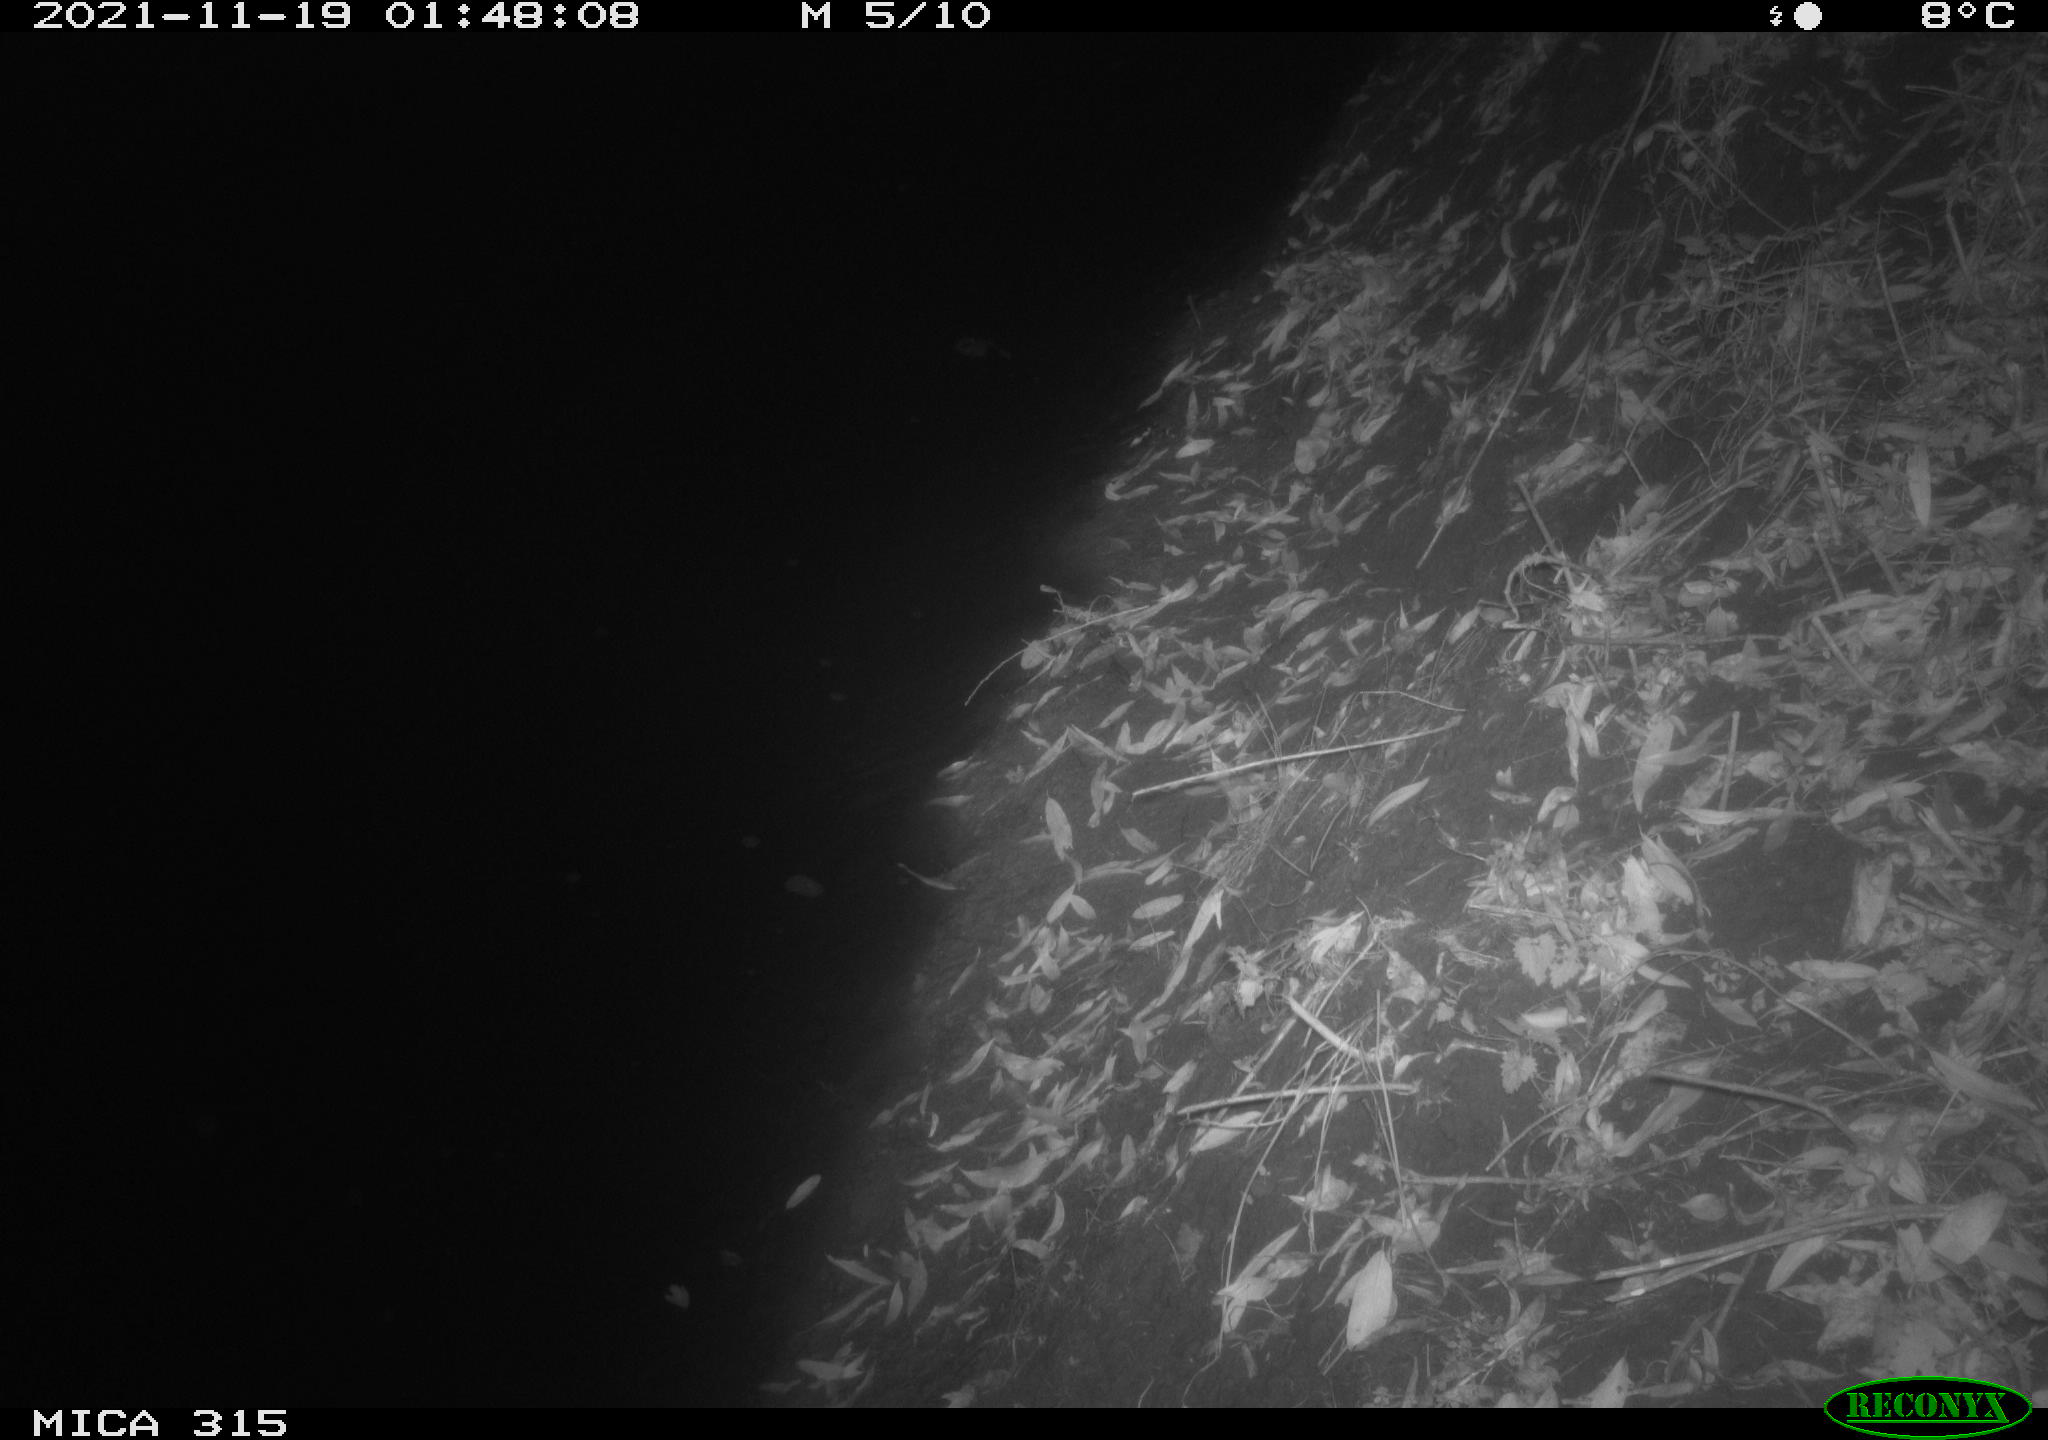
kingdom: Animalia
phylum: Chordata
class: Aves
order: Anseriformes
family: Anatidae
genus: Anas
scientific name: Anas platyrhynchos
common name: Mallard
